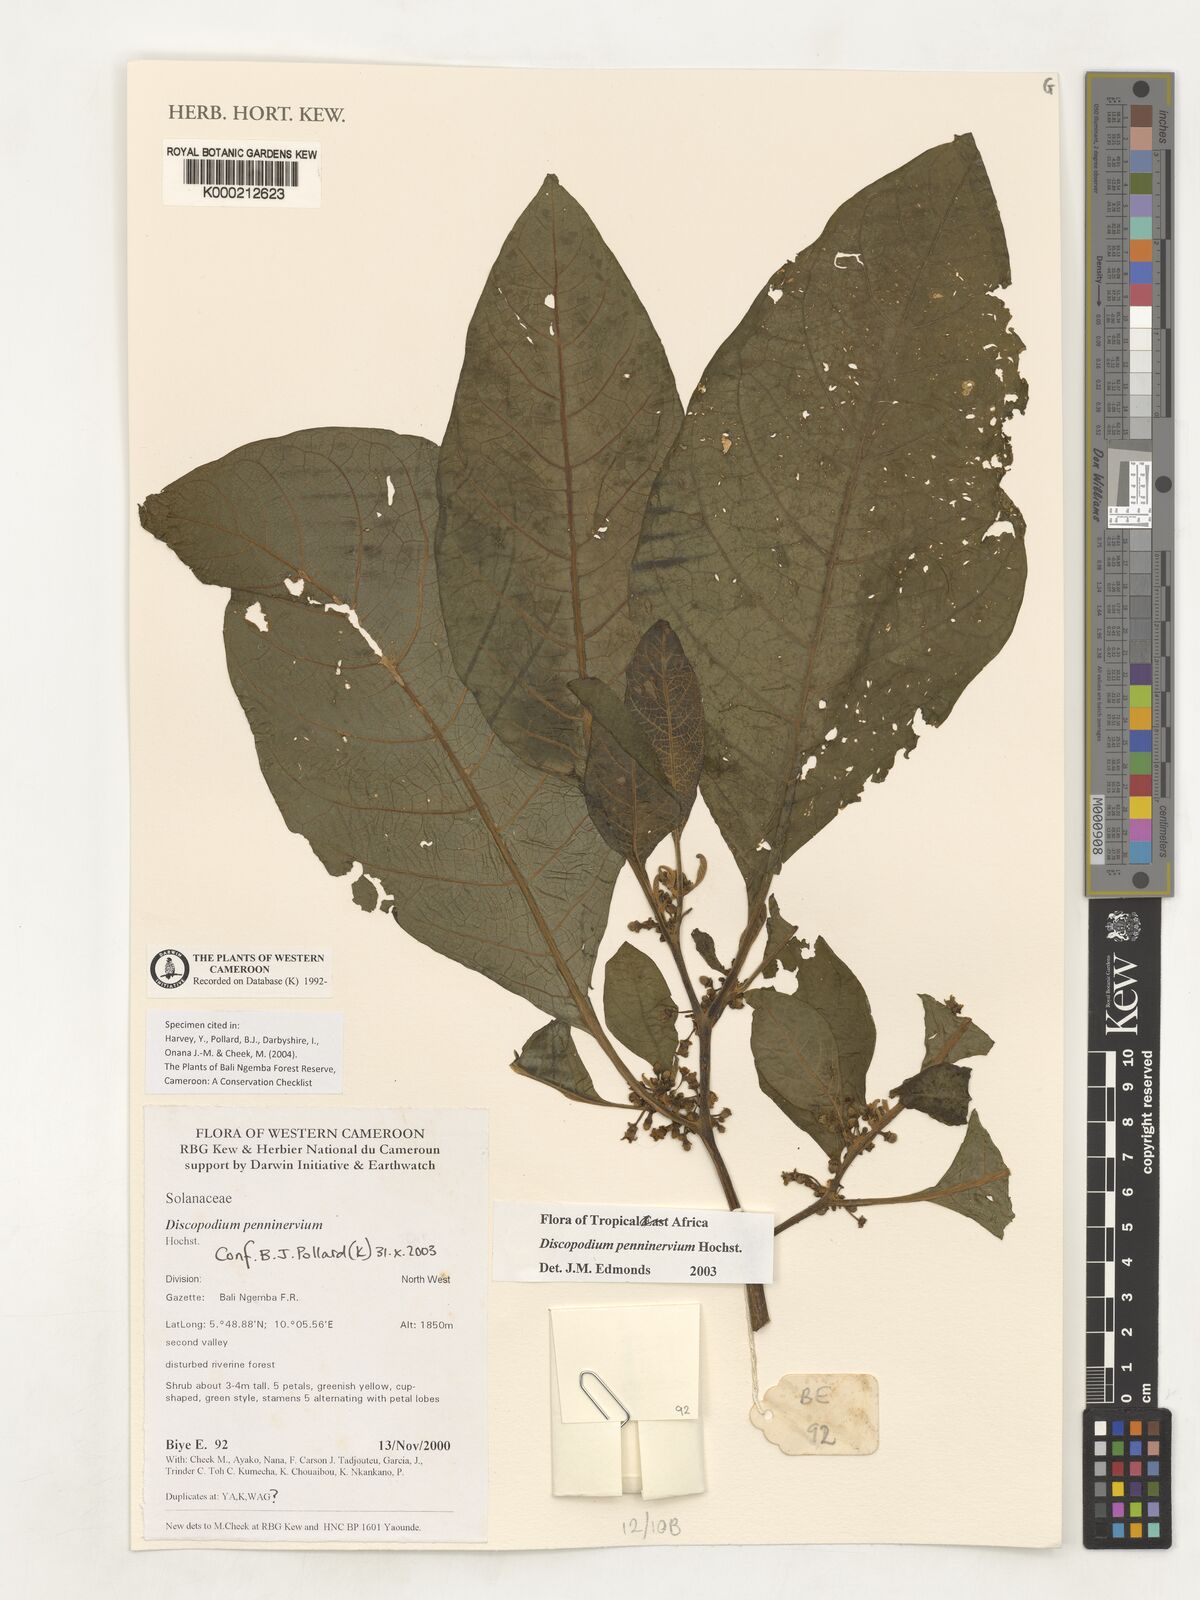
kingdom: Plantae
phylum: Tracheophyta
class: Magnoliopsida
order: Solanales
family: Solanaceae
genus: Discopodium
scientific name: Discopodium penninervium
